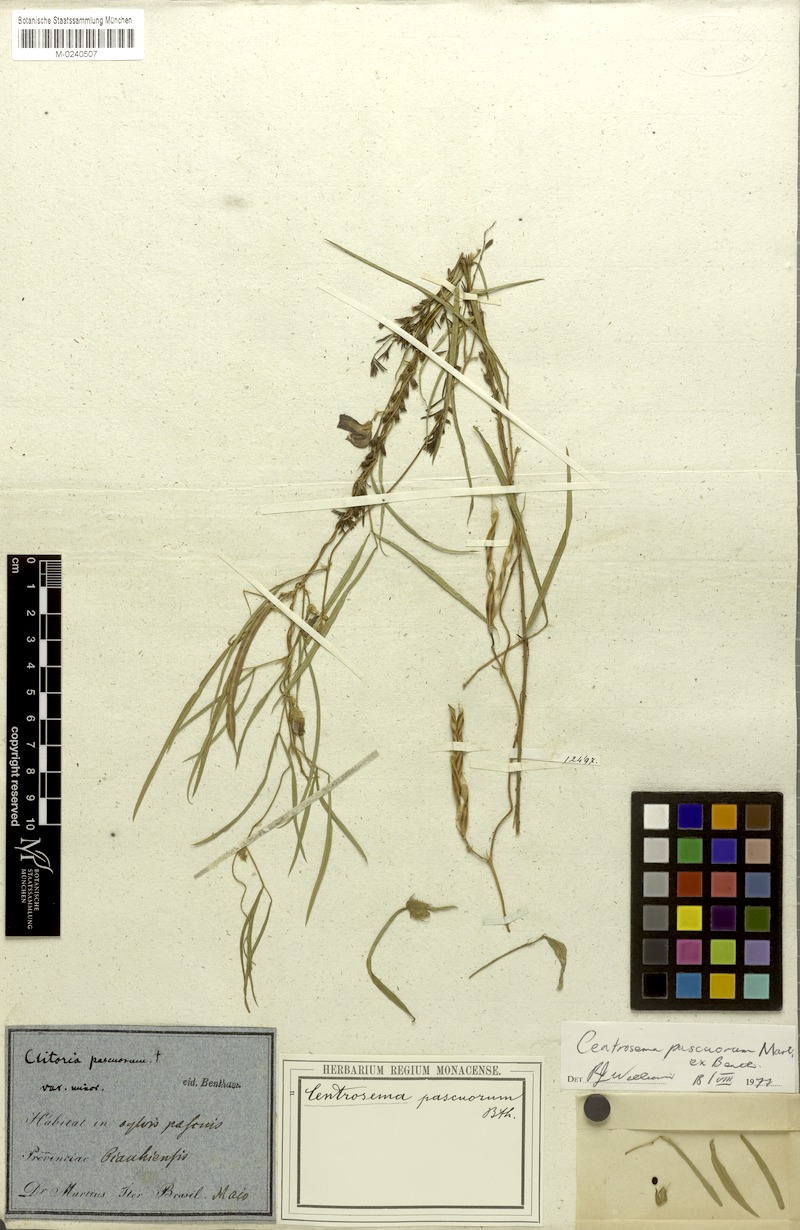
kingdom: Plantae
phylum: Tracheophyta
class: Magnoliopsida
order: Fabales
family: Fabaceae
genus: Centrosema
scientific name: Centrosema pascuorum
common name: Centurion
